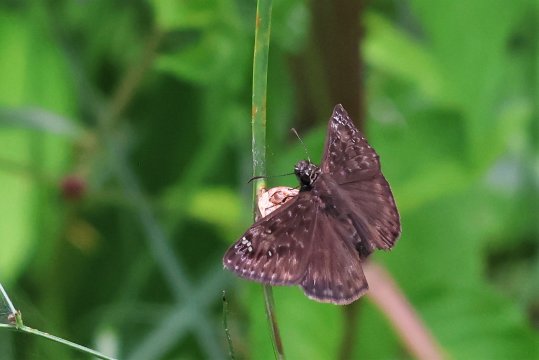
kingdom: Animalia
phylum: Arthropoda
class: Insecta
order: Lepidoptera
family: Hesperiidae
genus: Gesta
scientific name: Gesta
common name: Horace's Duskywing
